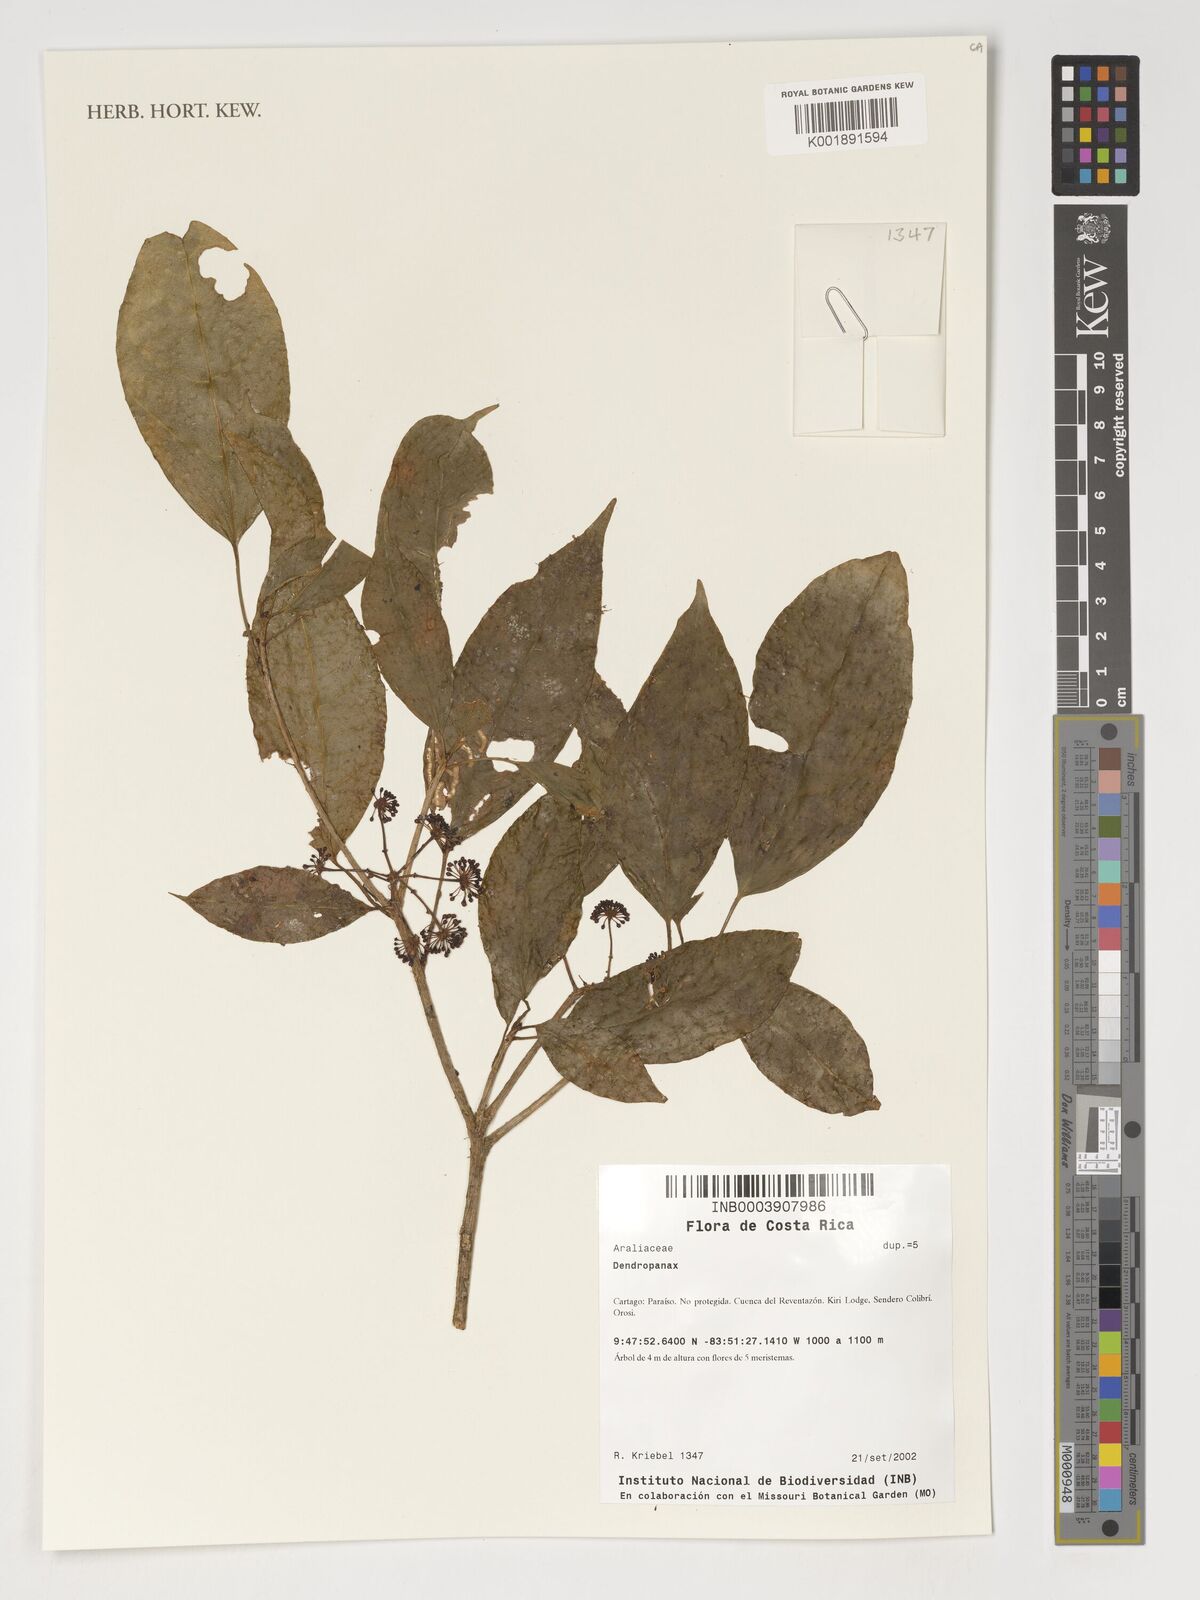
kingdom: Plantae
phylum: Tracheophyta
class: Magnoliopsida
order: Apiales
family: Araliaceae
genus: Dendropanax
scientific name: Dendropanax
